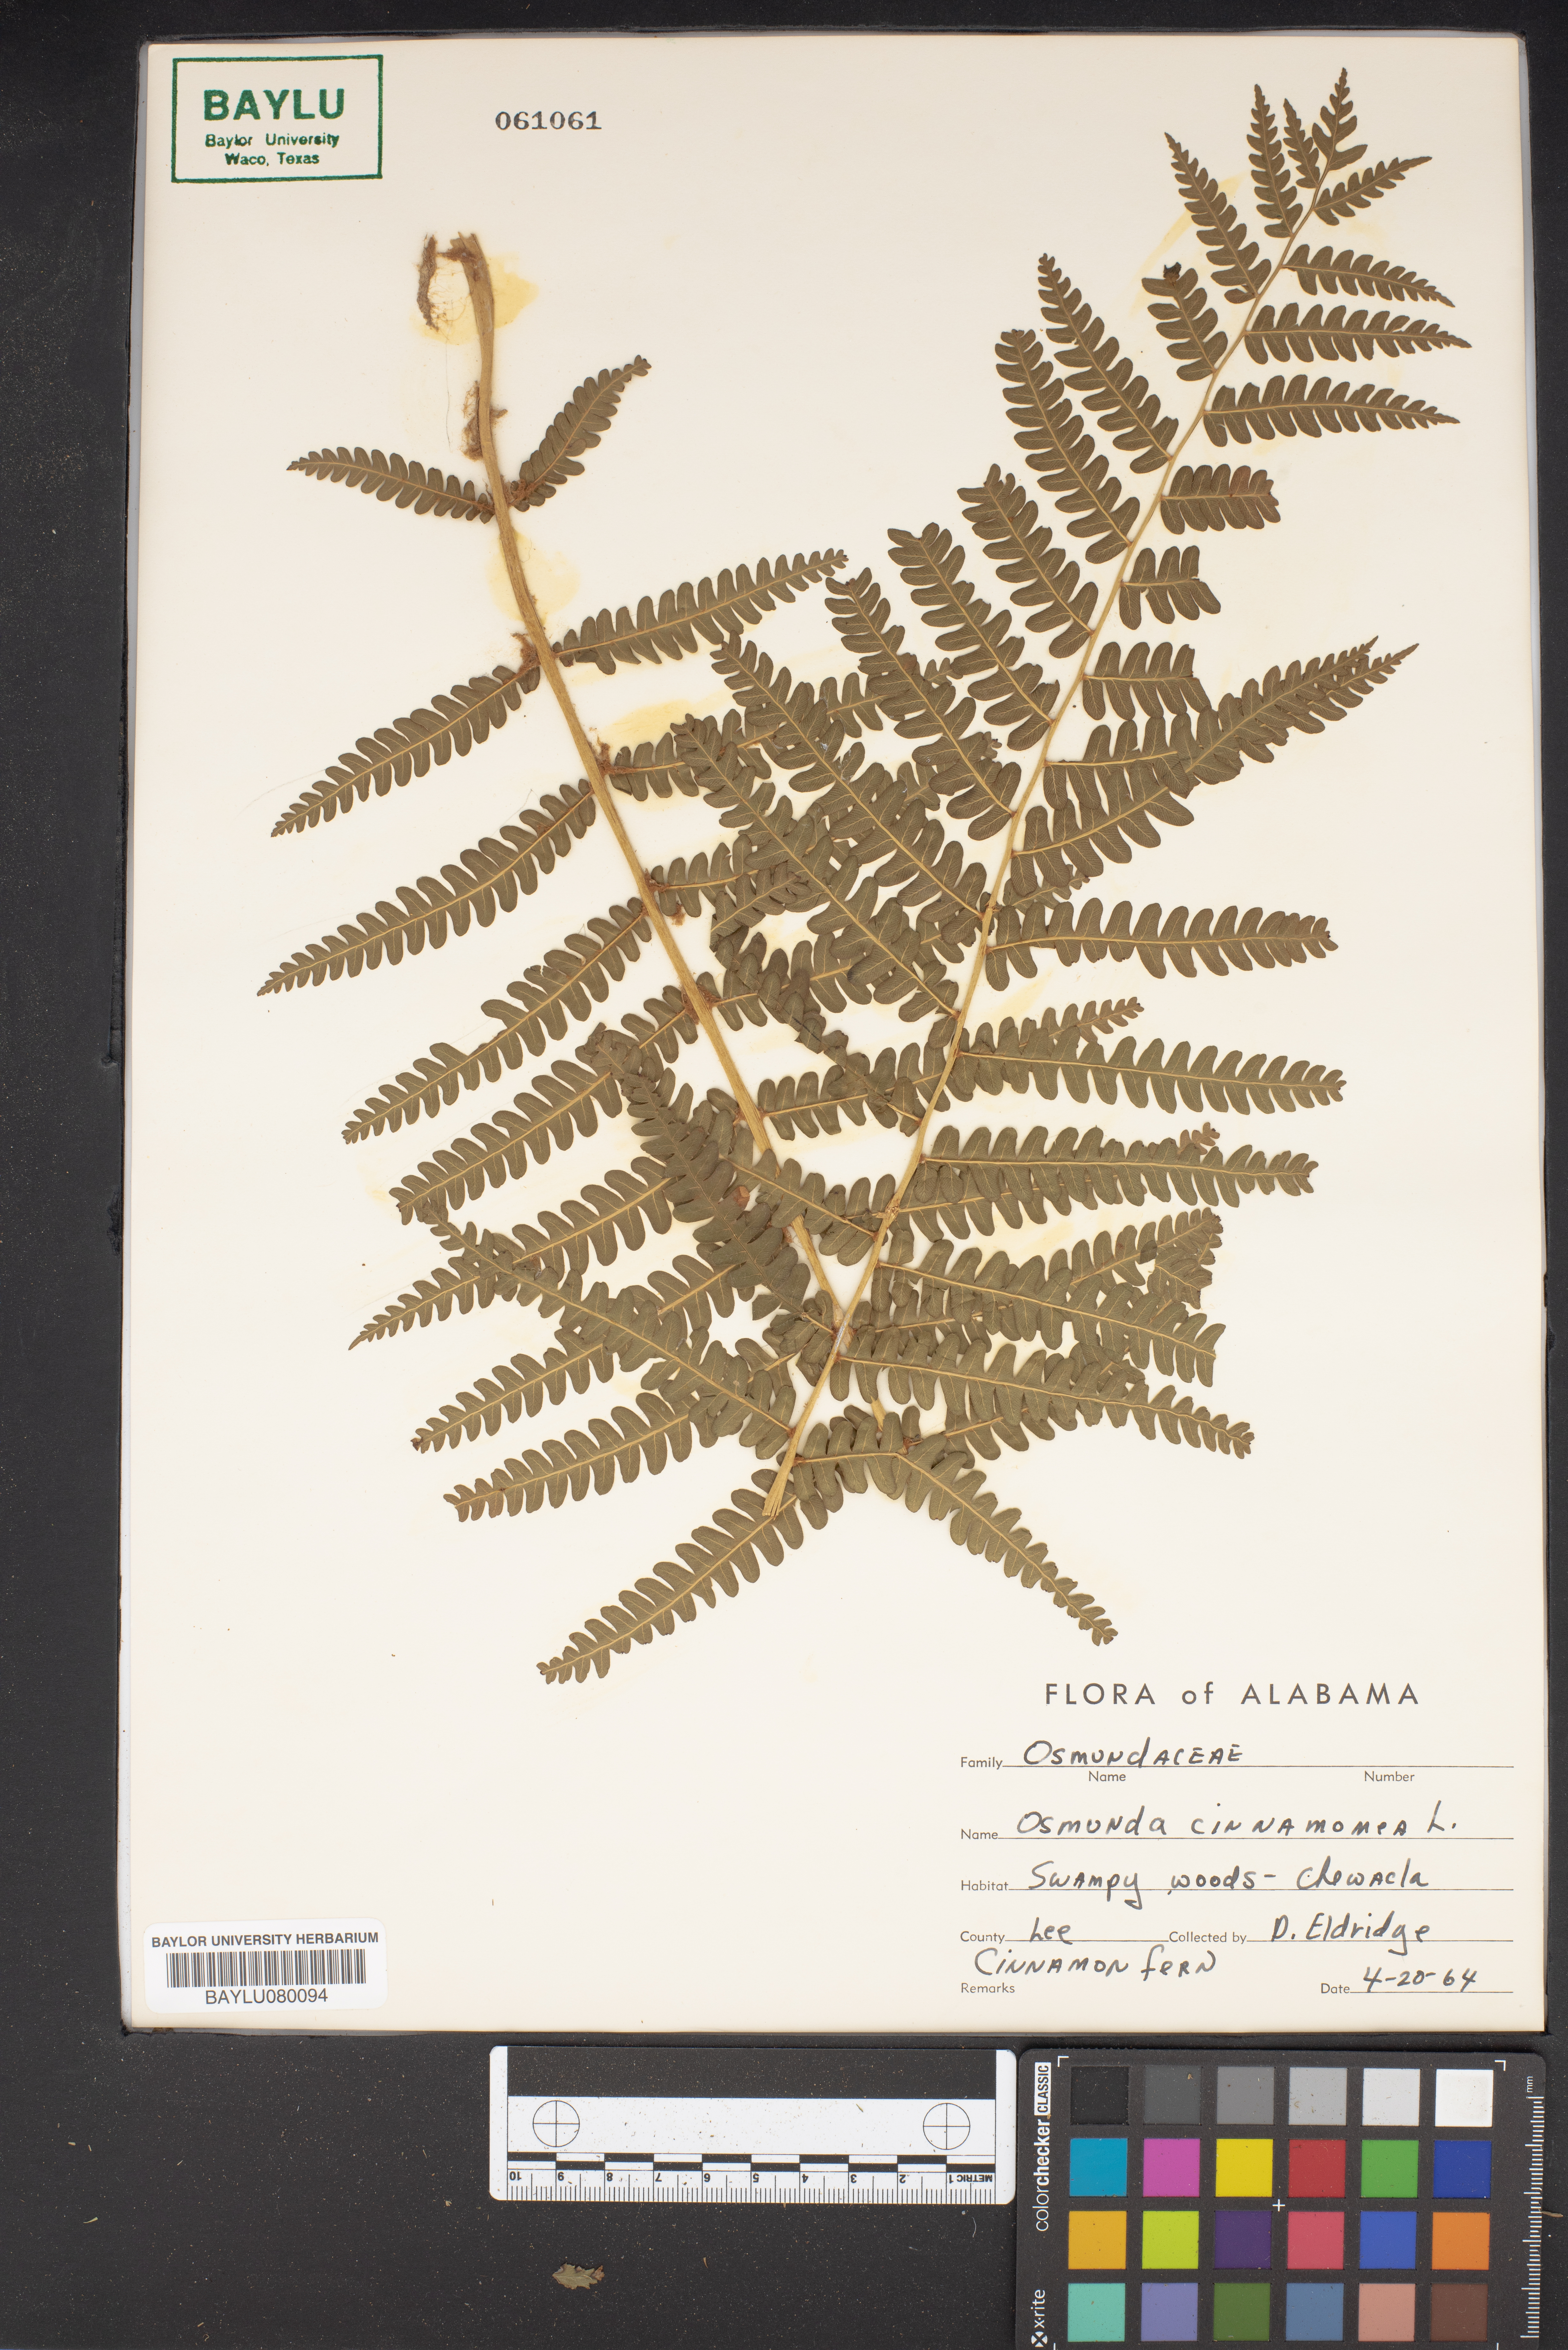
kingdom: Plantae
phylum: Tracheophyta
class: Polypodiopsida
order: Osmundales
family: Osmundaceae
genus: Osmundastrum
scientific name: Osmundastrum cinnamomeum
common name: Cinnamon fern
